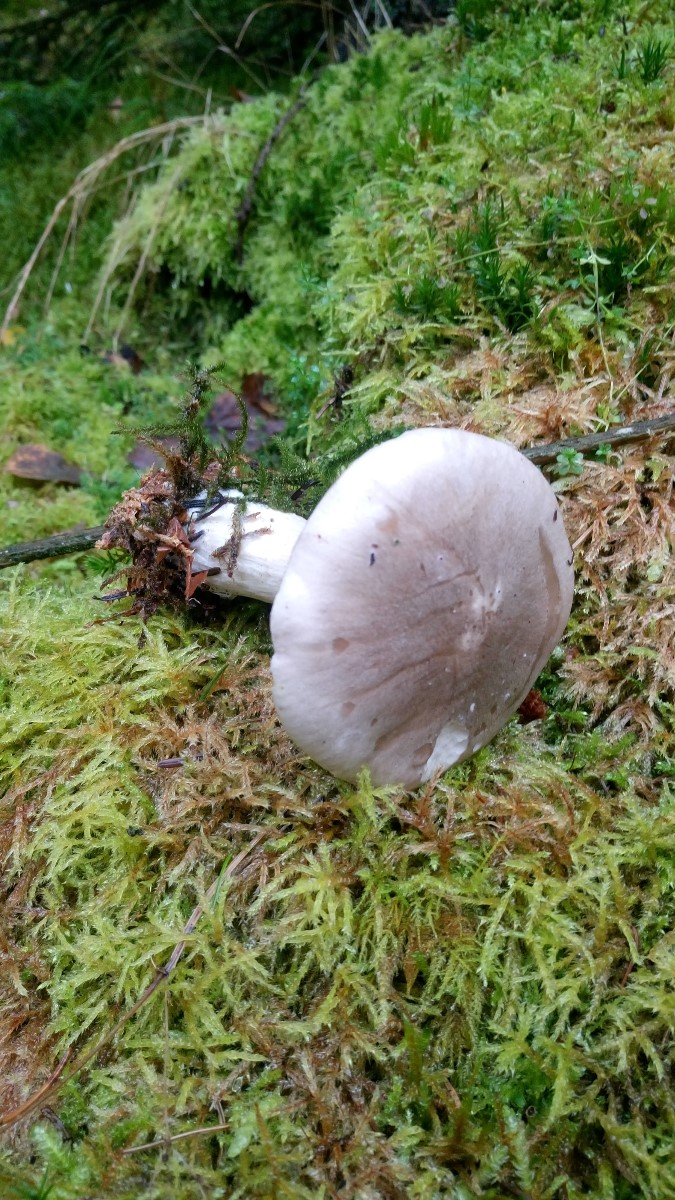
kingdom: Fungi
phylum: Basidiomycota
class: Agaricomycetes
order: Agaricales
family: Tricholomataceae
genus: Clitocybe
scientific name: Clitocybe nebularis
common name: tåge-tragthat
